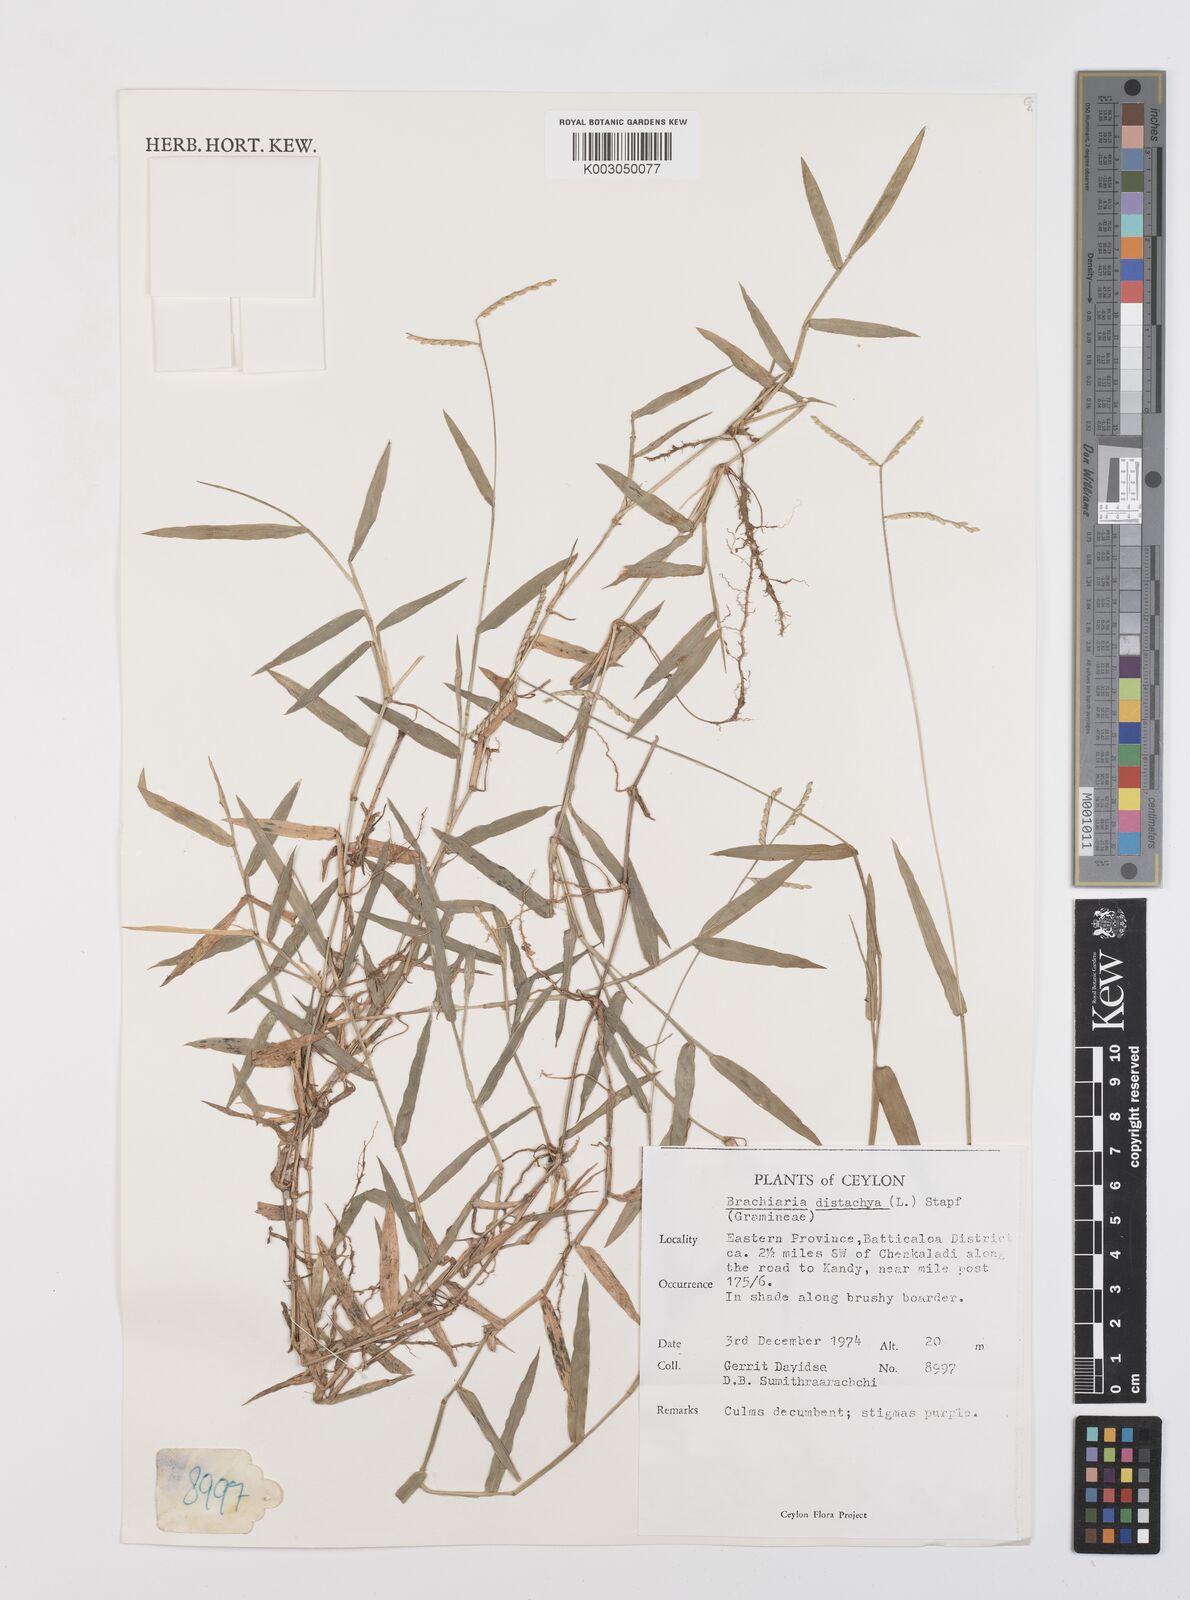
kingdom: Plantae
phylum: Tracheophyta
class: Liliopsida
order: Poales
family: Poaceae
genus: Urochloa
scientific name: Urochloa distachyos
